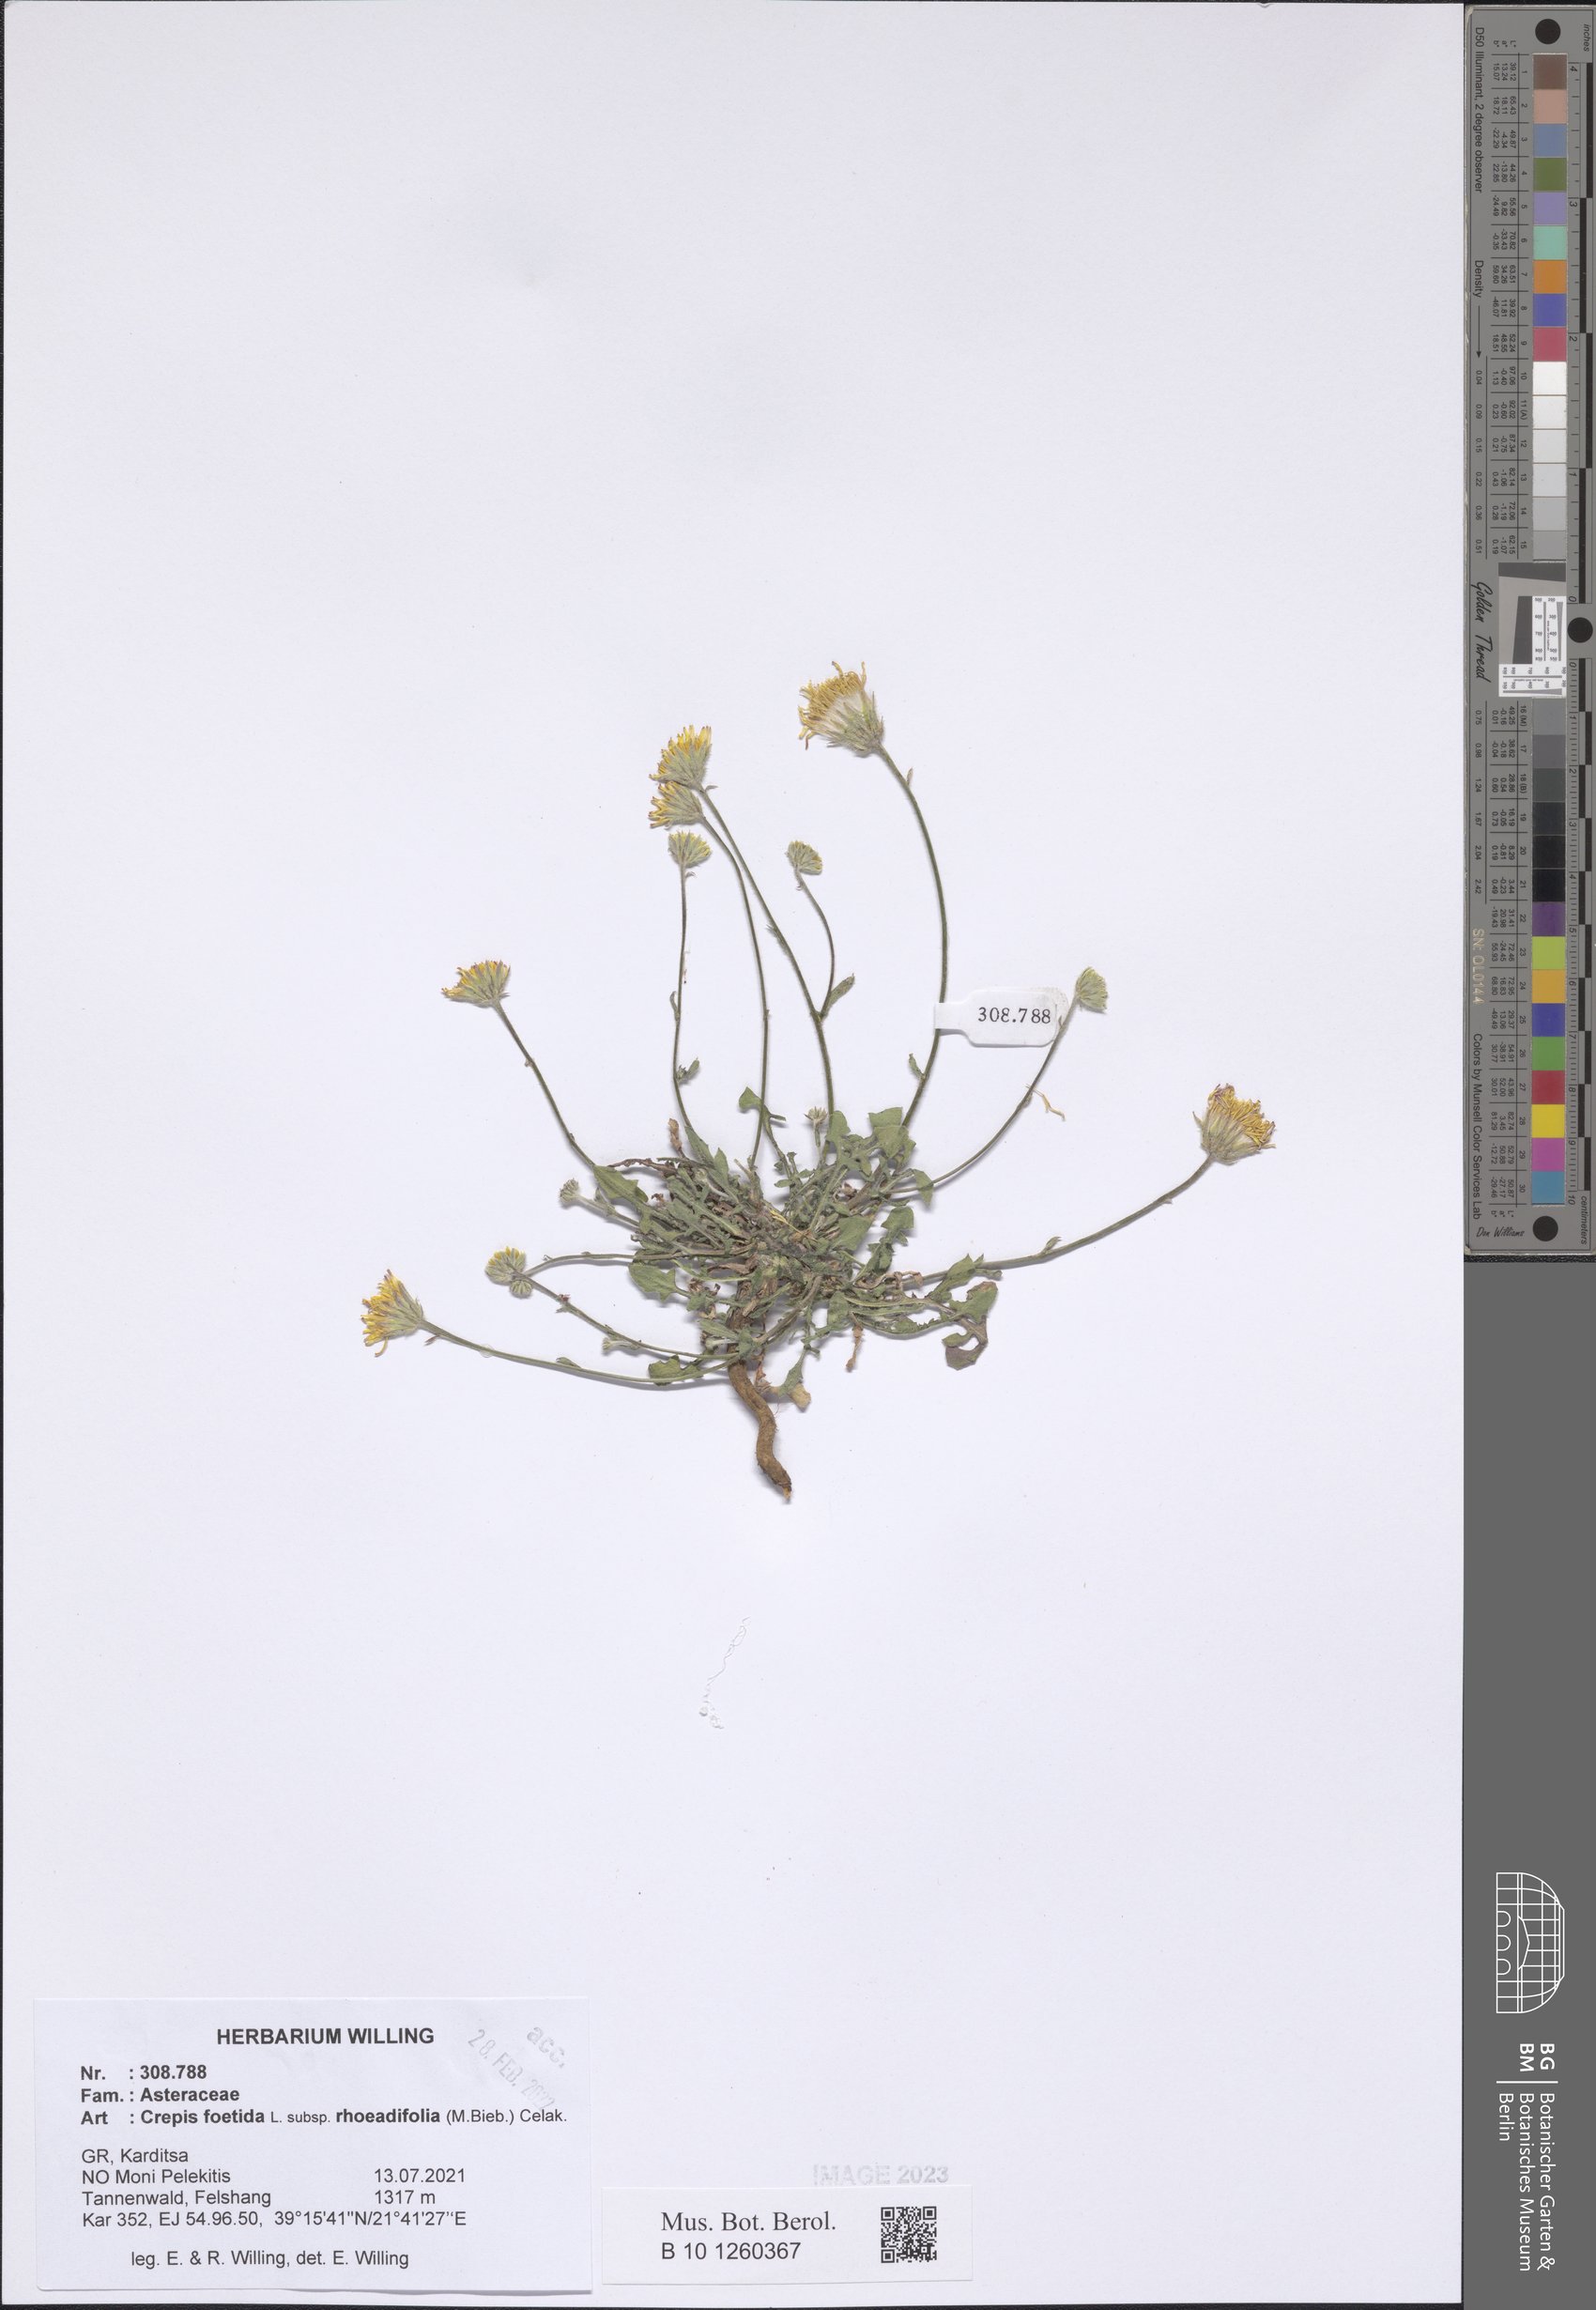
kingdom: Plantae
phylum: Tracheophyta
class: Magnoliopsida
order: Asterales
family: Asteraceae
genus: Crepis
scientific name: Crepis foetida
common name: Stinking hawk's-beard
